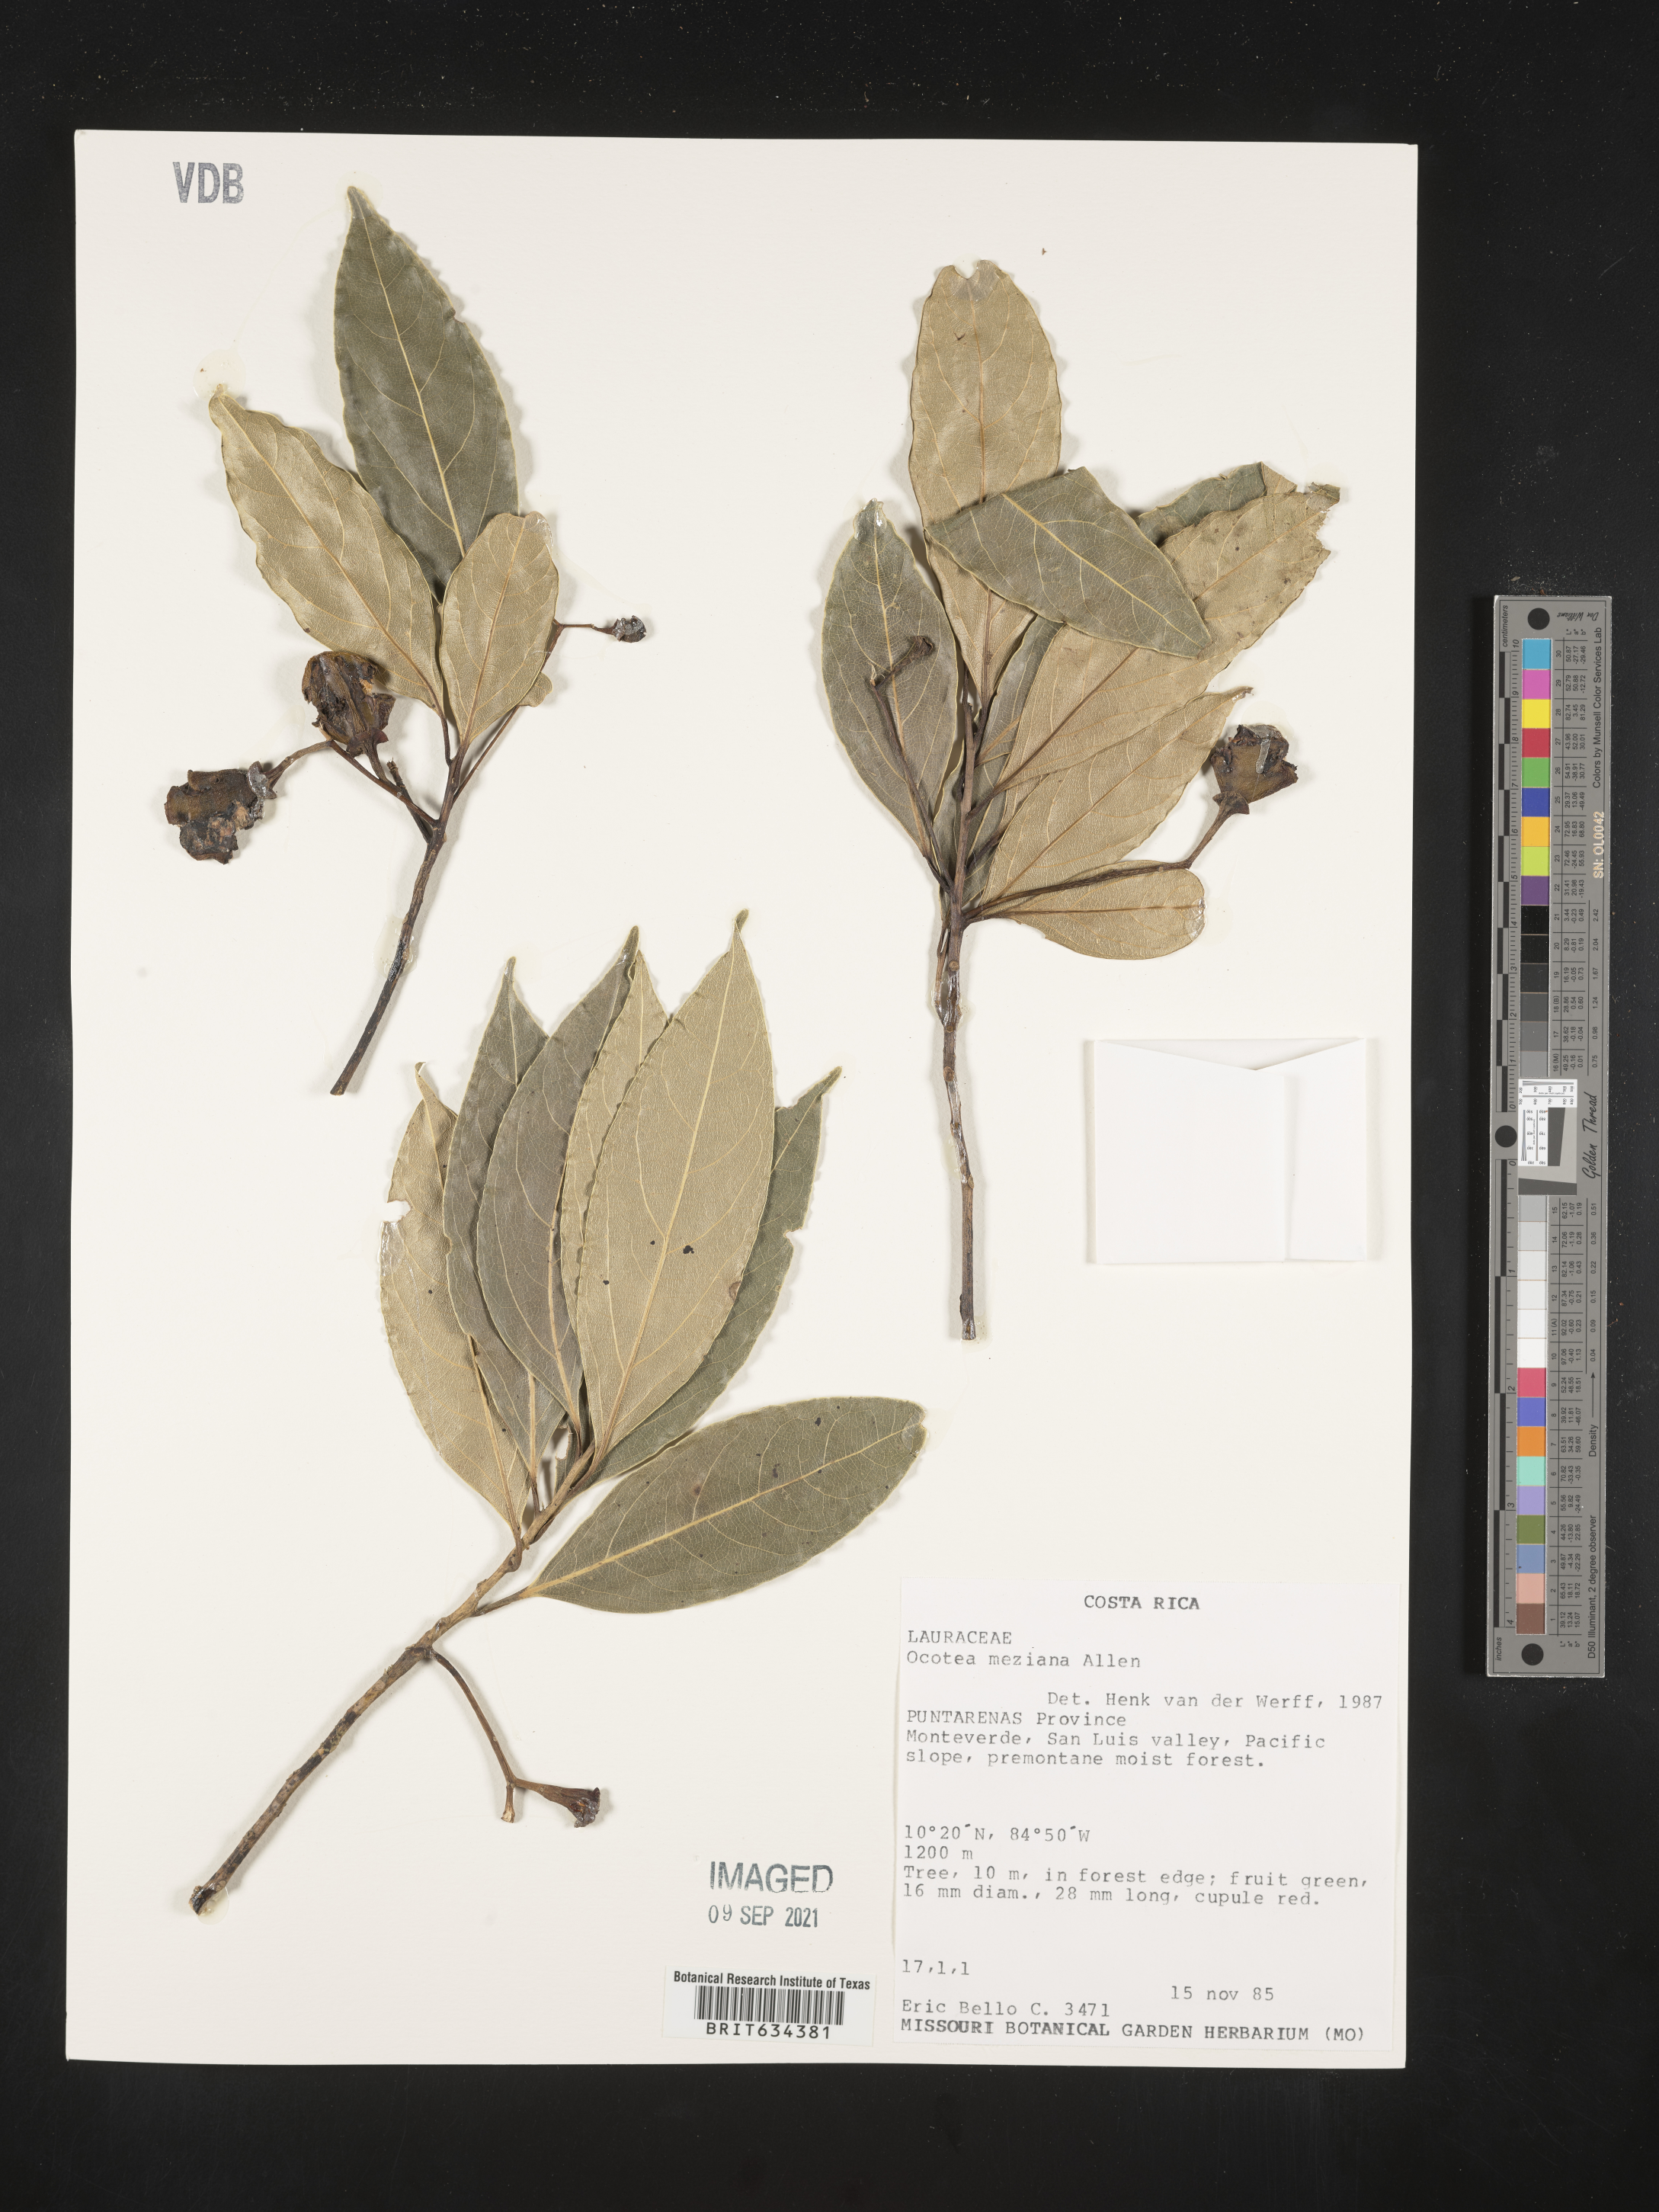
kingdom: Plantae
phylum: Tracheophyta
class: Magnoliopsida
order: Laurales
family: Lauraceae
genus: Ocotea
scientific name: Ocotea
